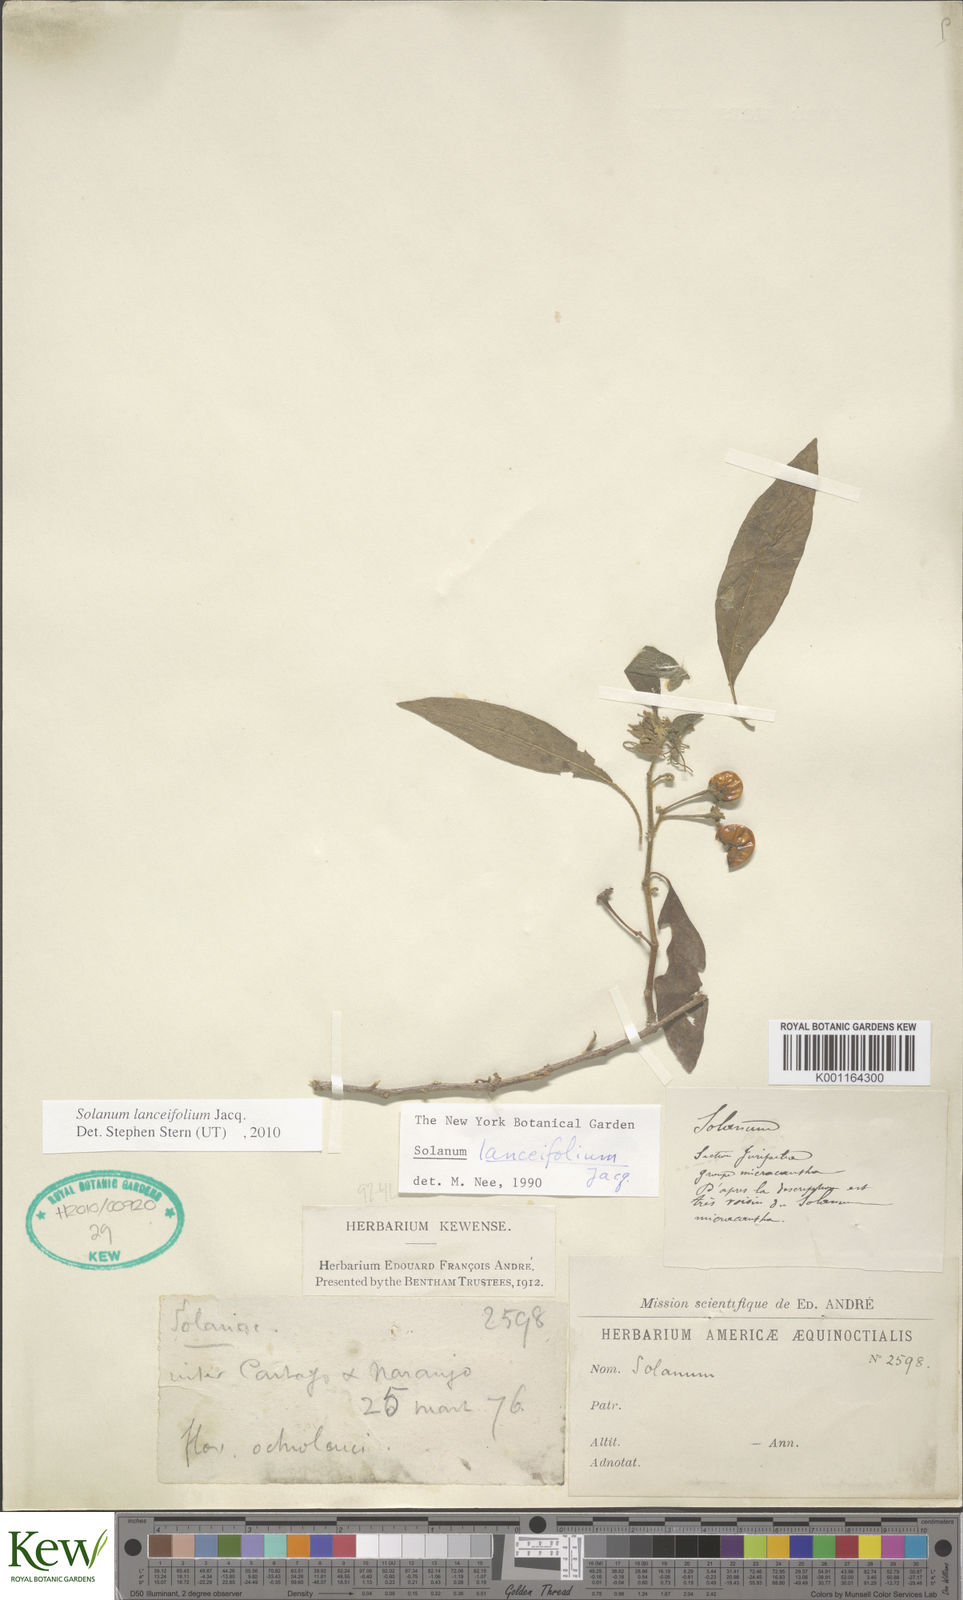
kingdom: Plantae
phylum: Tracheophyta
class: Magnoliopsida
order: Solanales
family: Solanaceae
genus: Solanum
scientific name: Solanum lanceifolium
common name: Lanceleaf nightshade
